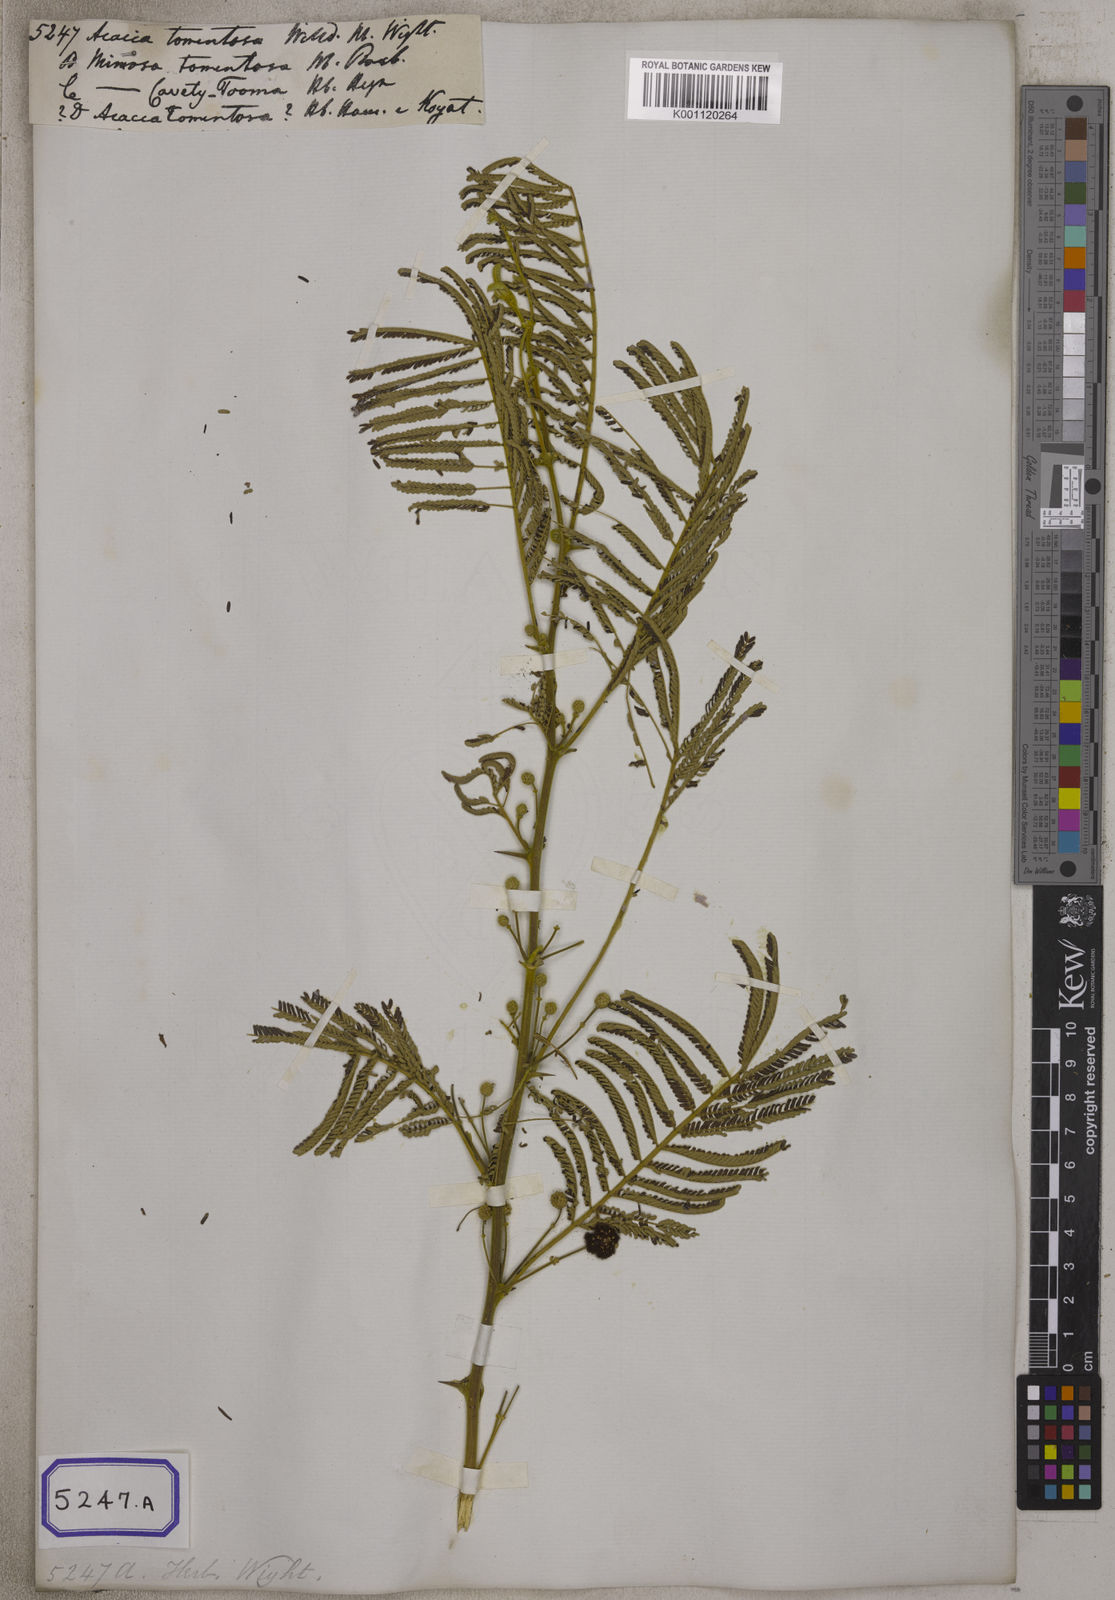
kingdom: Plantae
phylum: Tracheophyta
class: Magnoliopsida
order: Fabales
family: Fabaceae
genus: Vachellia
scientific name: Vachellia tomentosa
